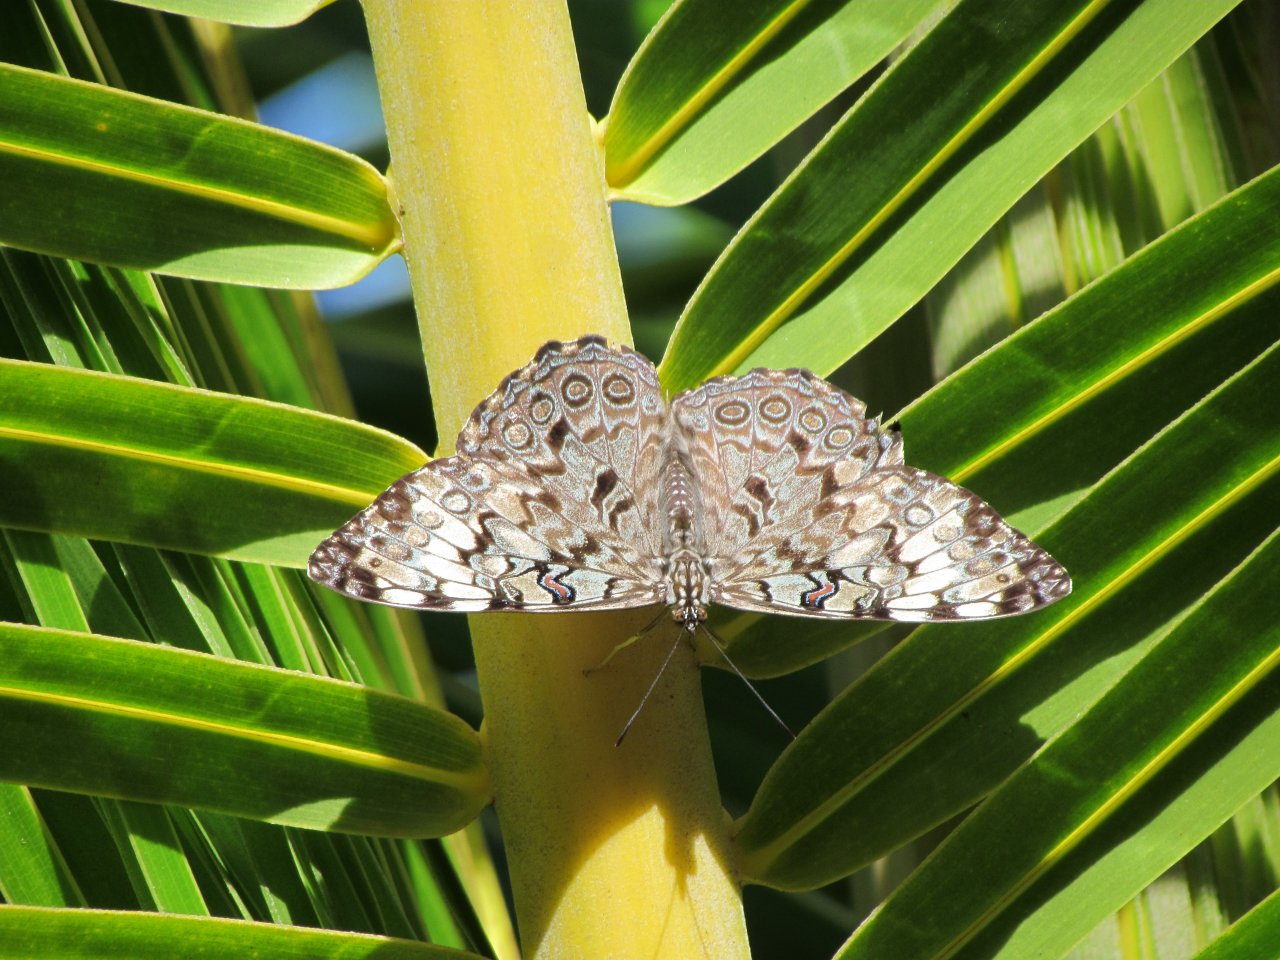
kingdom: Animalia
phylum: Arthropoda
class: Insecta
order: Lepidoptera
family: Nymphalidae
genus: Hamadryas
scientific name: Hamadryas februa
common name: Gray Cracker
